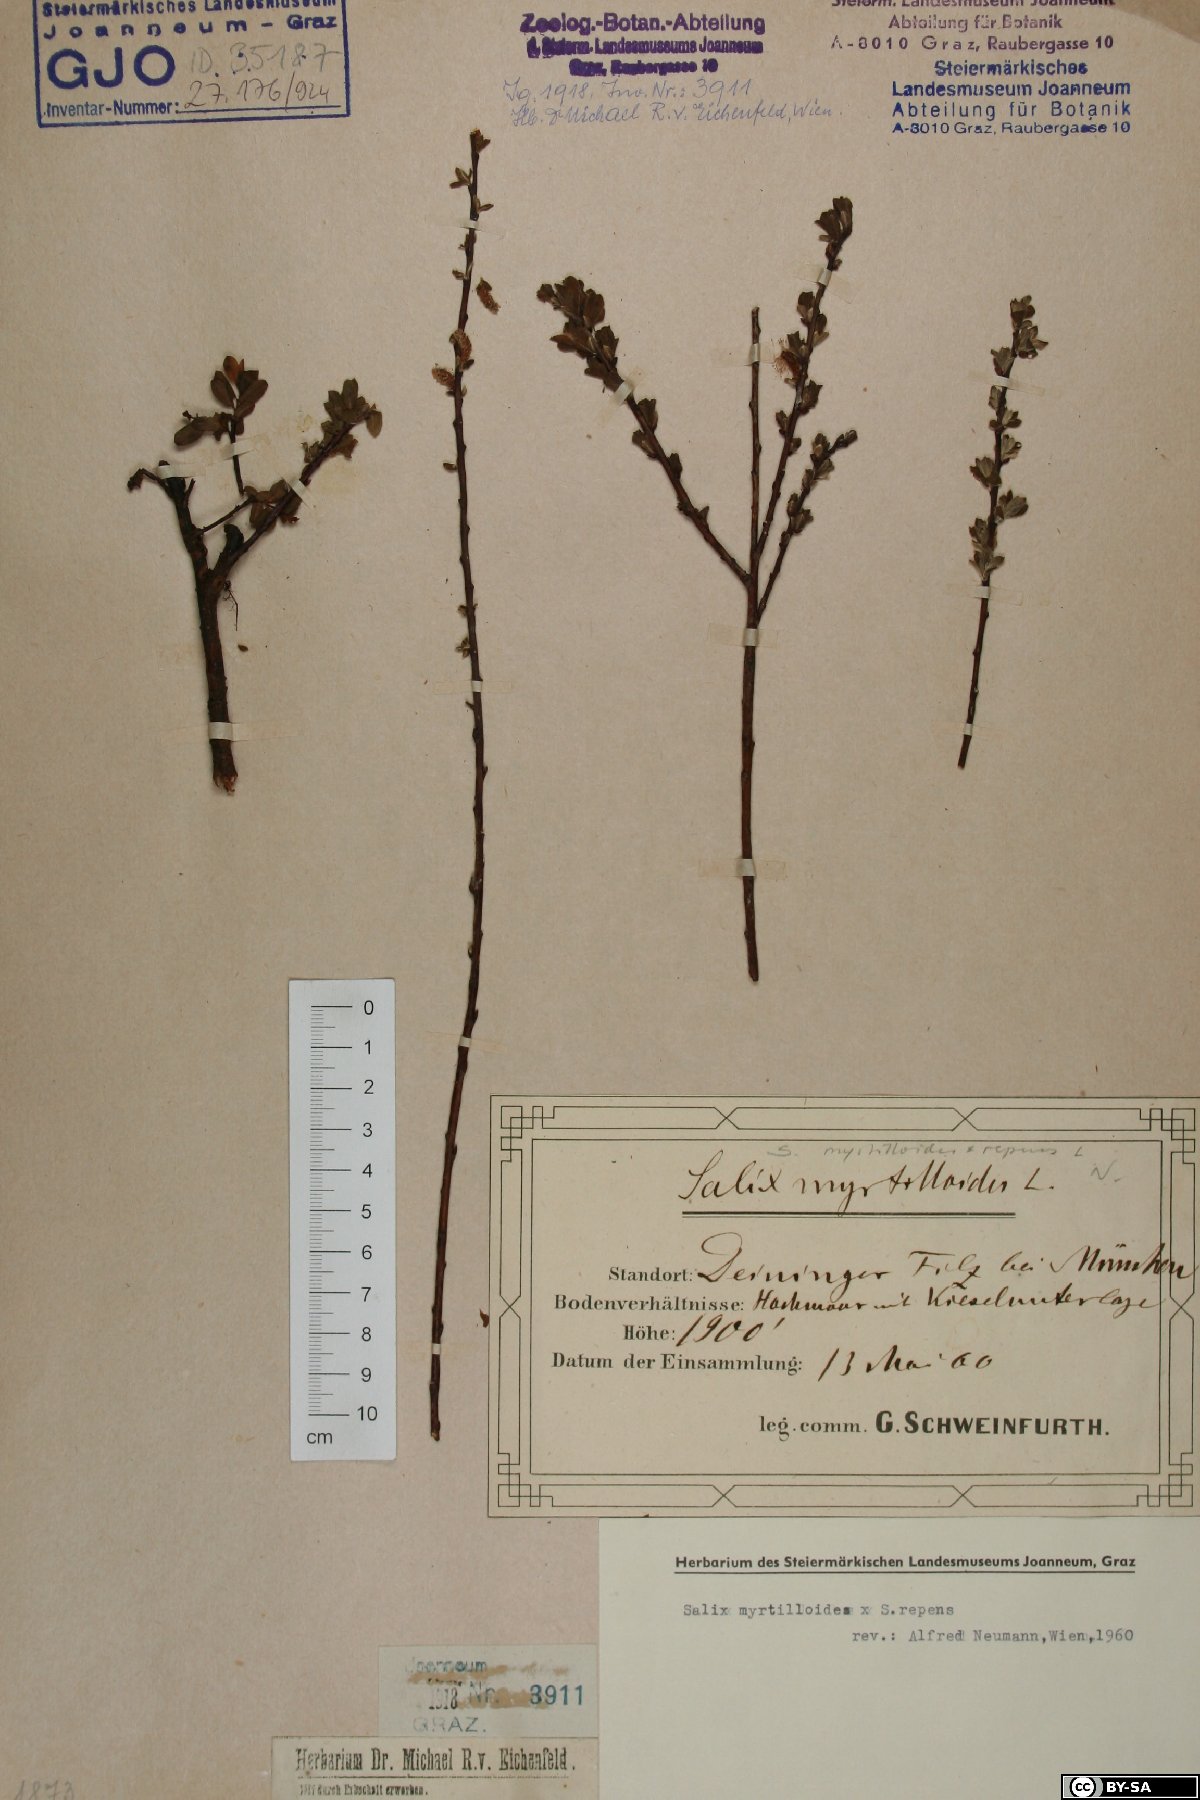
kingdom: Plantae
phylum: Tracheophyta
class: Magnoliopsida
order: Malpighiales
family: Salicaceae
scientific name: Salicaceae
